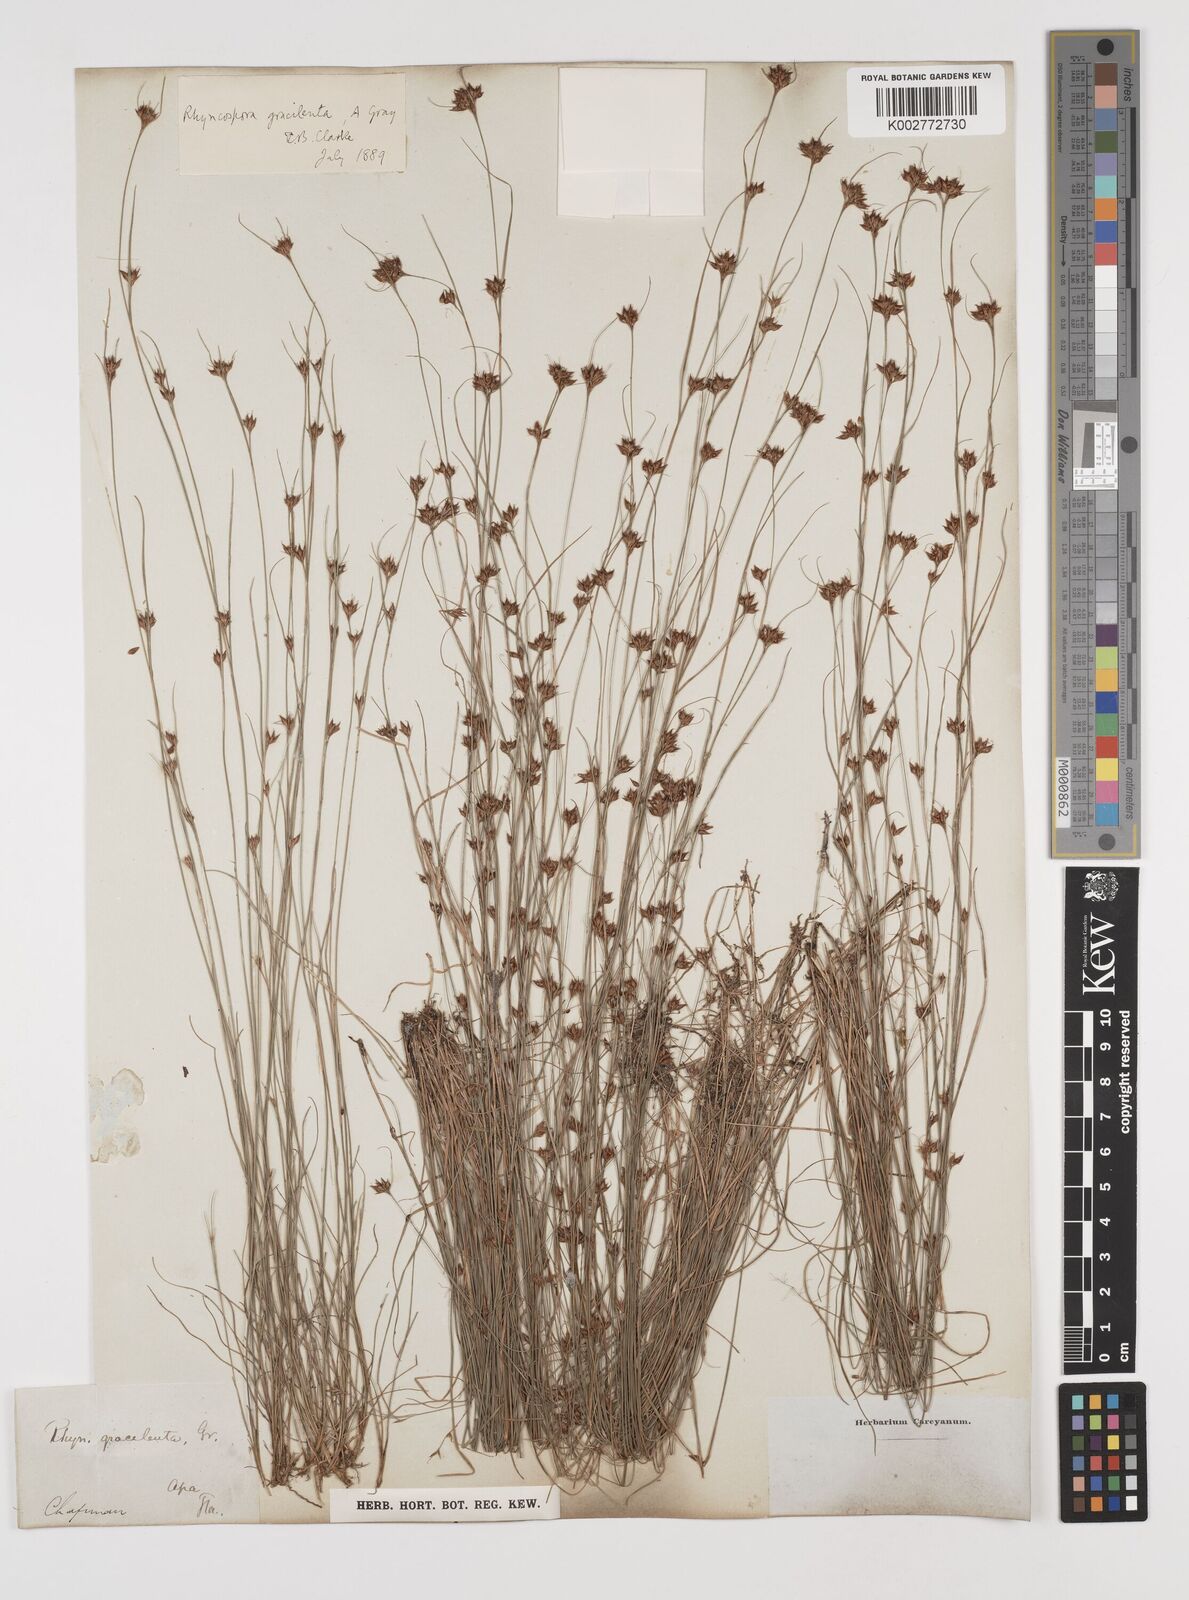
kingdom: Plantae
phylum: Tracheophyta
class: Liliopsida
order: Poales
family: Cyperaceae
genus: Rhynchospora
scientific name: Rhynchospora gracilenta
